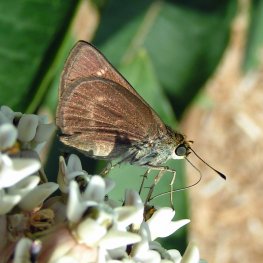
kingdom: Animalia
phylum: Arthropoda
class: Insecta
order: Lepidoptera
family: Hesperiidae
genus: Polites
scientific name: Polites
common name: Crossline Skipper
